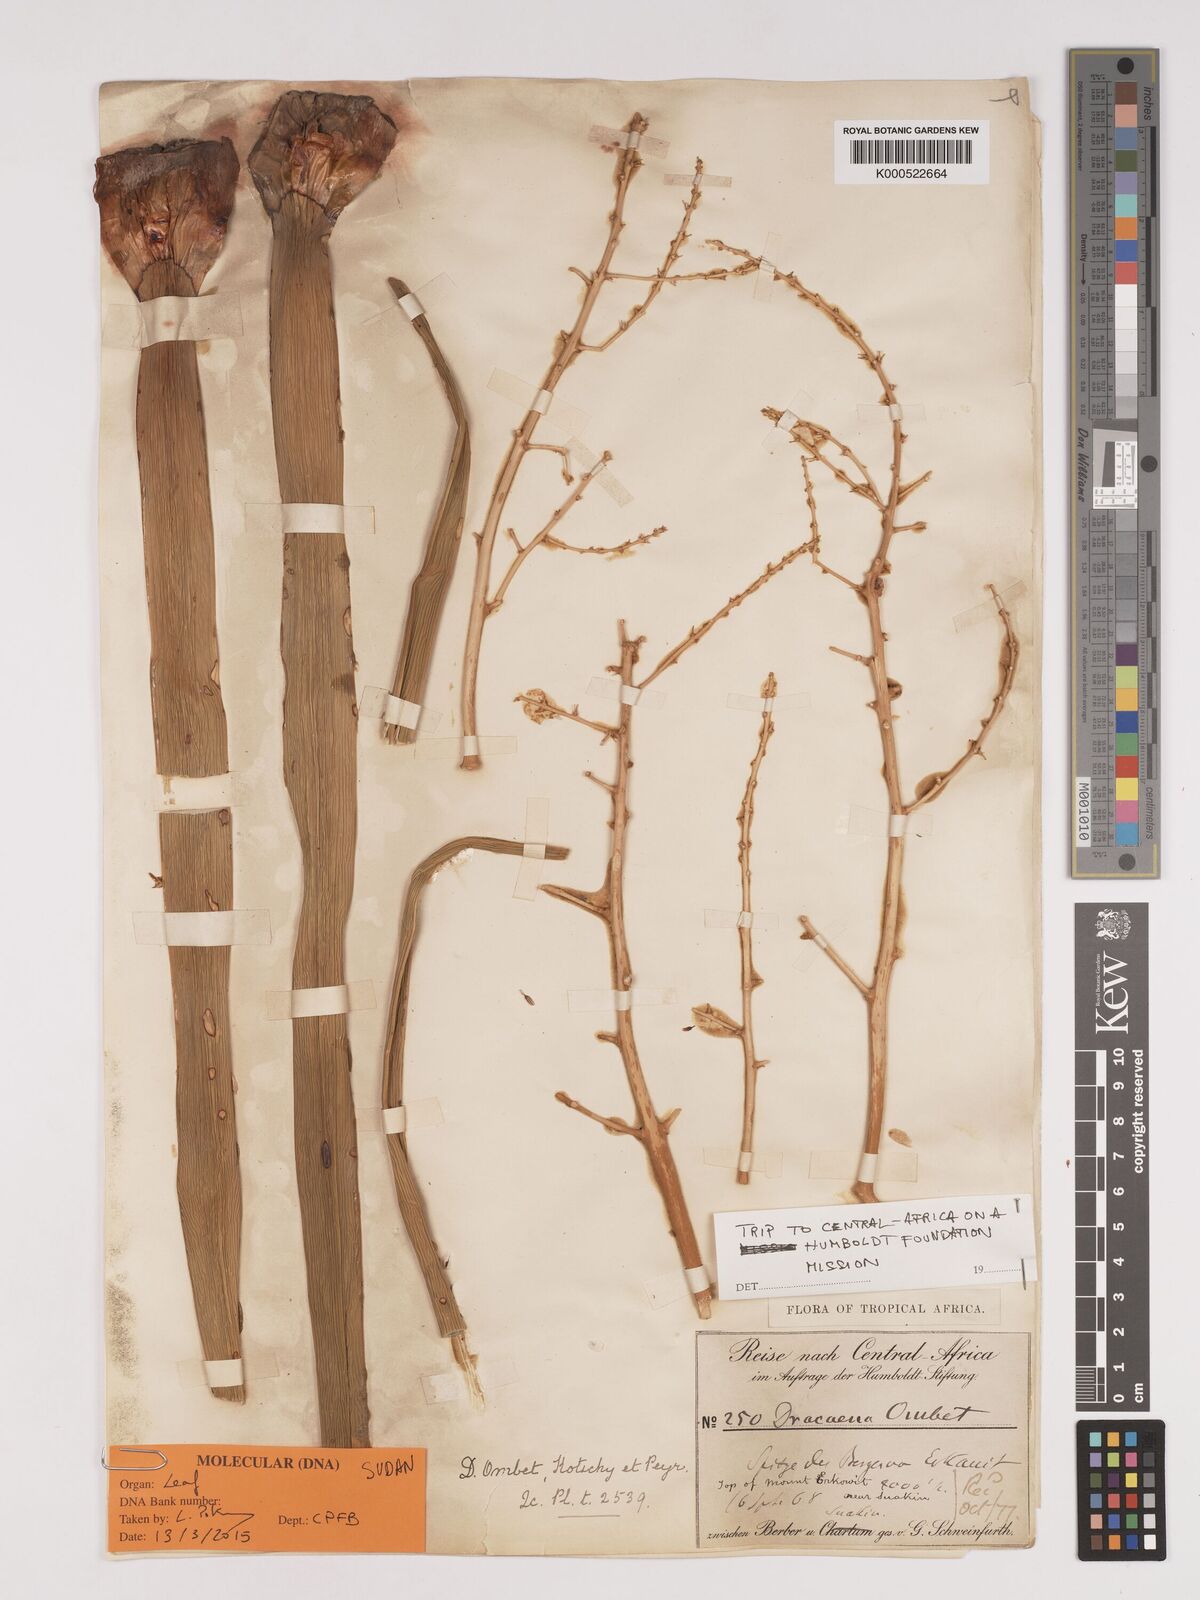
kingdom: Plantae
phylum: Tracheophyta
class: Liliopsida
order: Asparagales
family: Asparagaceae
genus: Dracaena
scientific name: Dracaena ombet
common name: Gabal elba dragon tree
